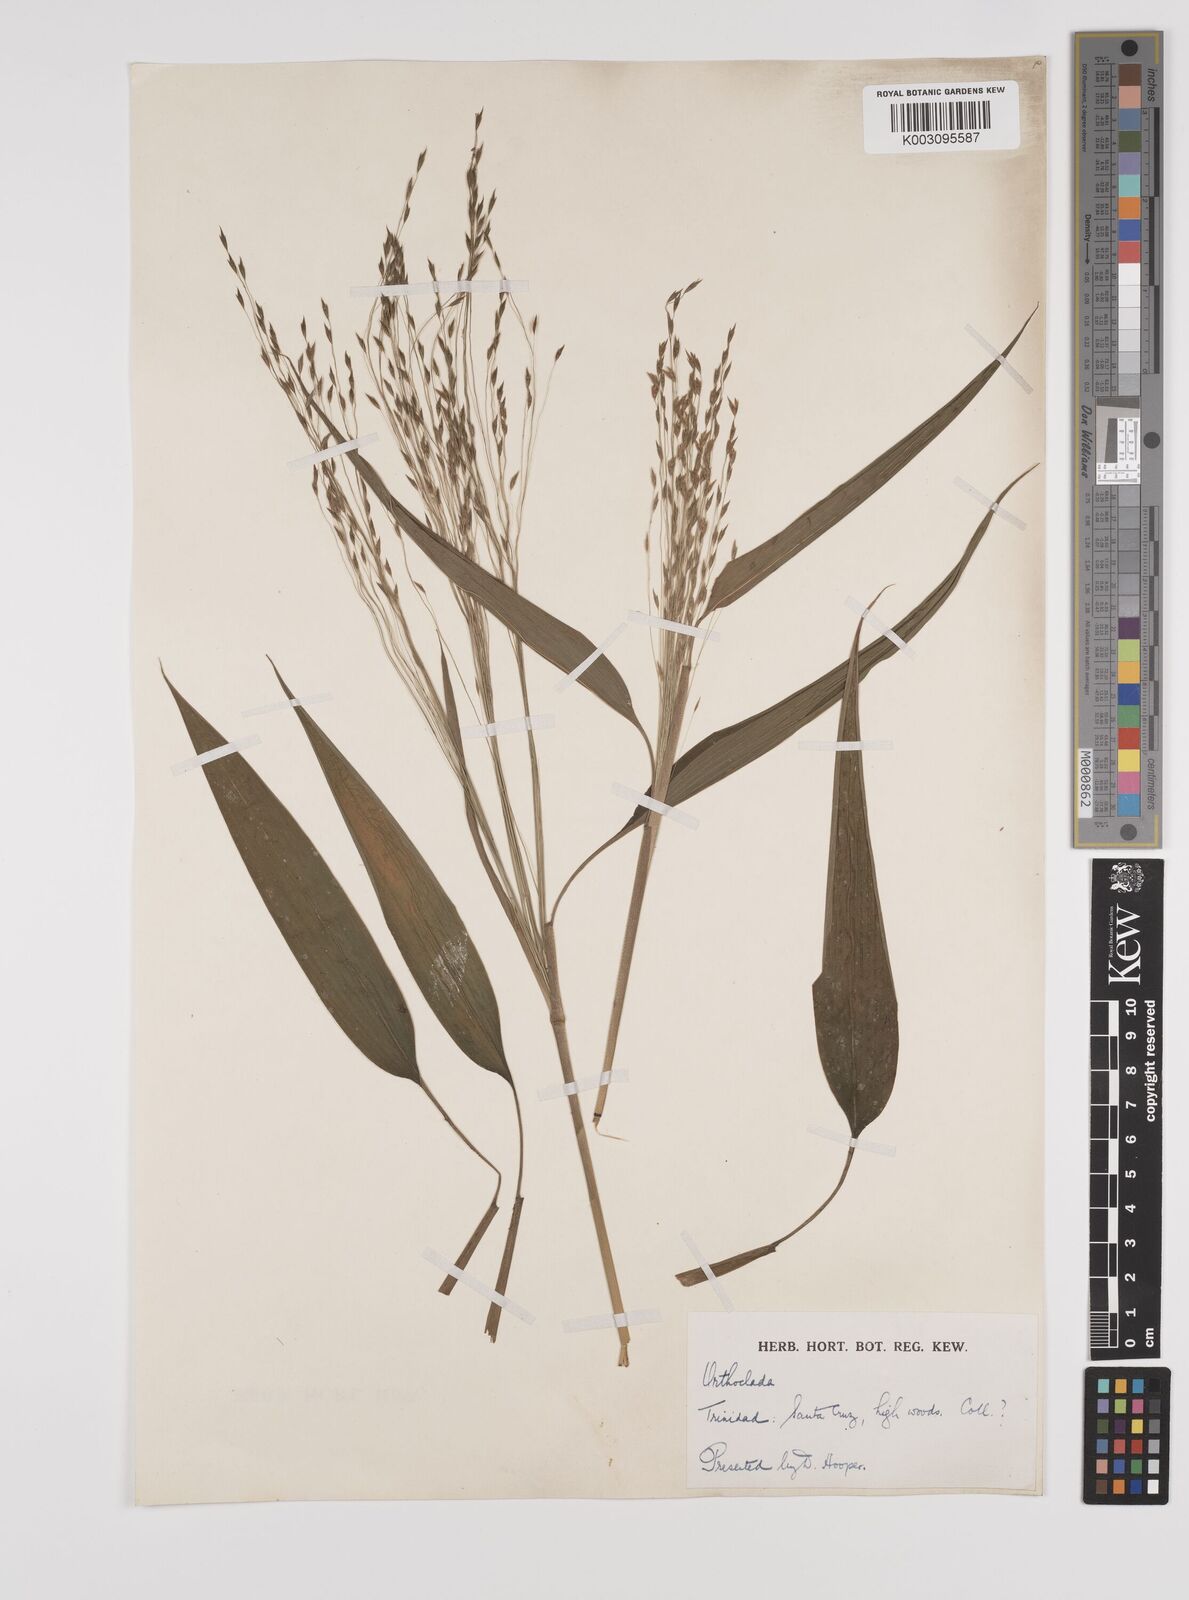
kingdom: Plantae
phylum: Tracheophyta
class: Liliopsida
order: Poales
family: Poaceae
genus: Orthoclada
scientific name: Orthoclada laxa
